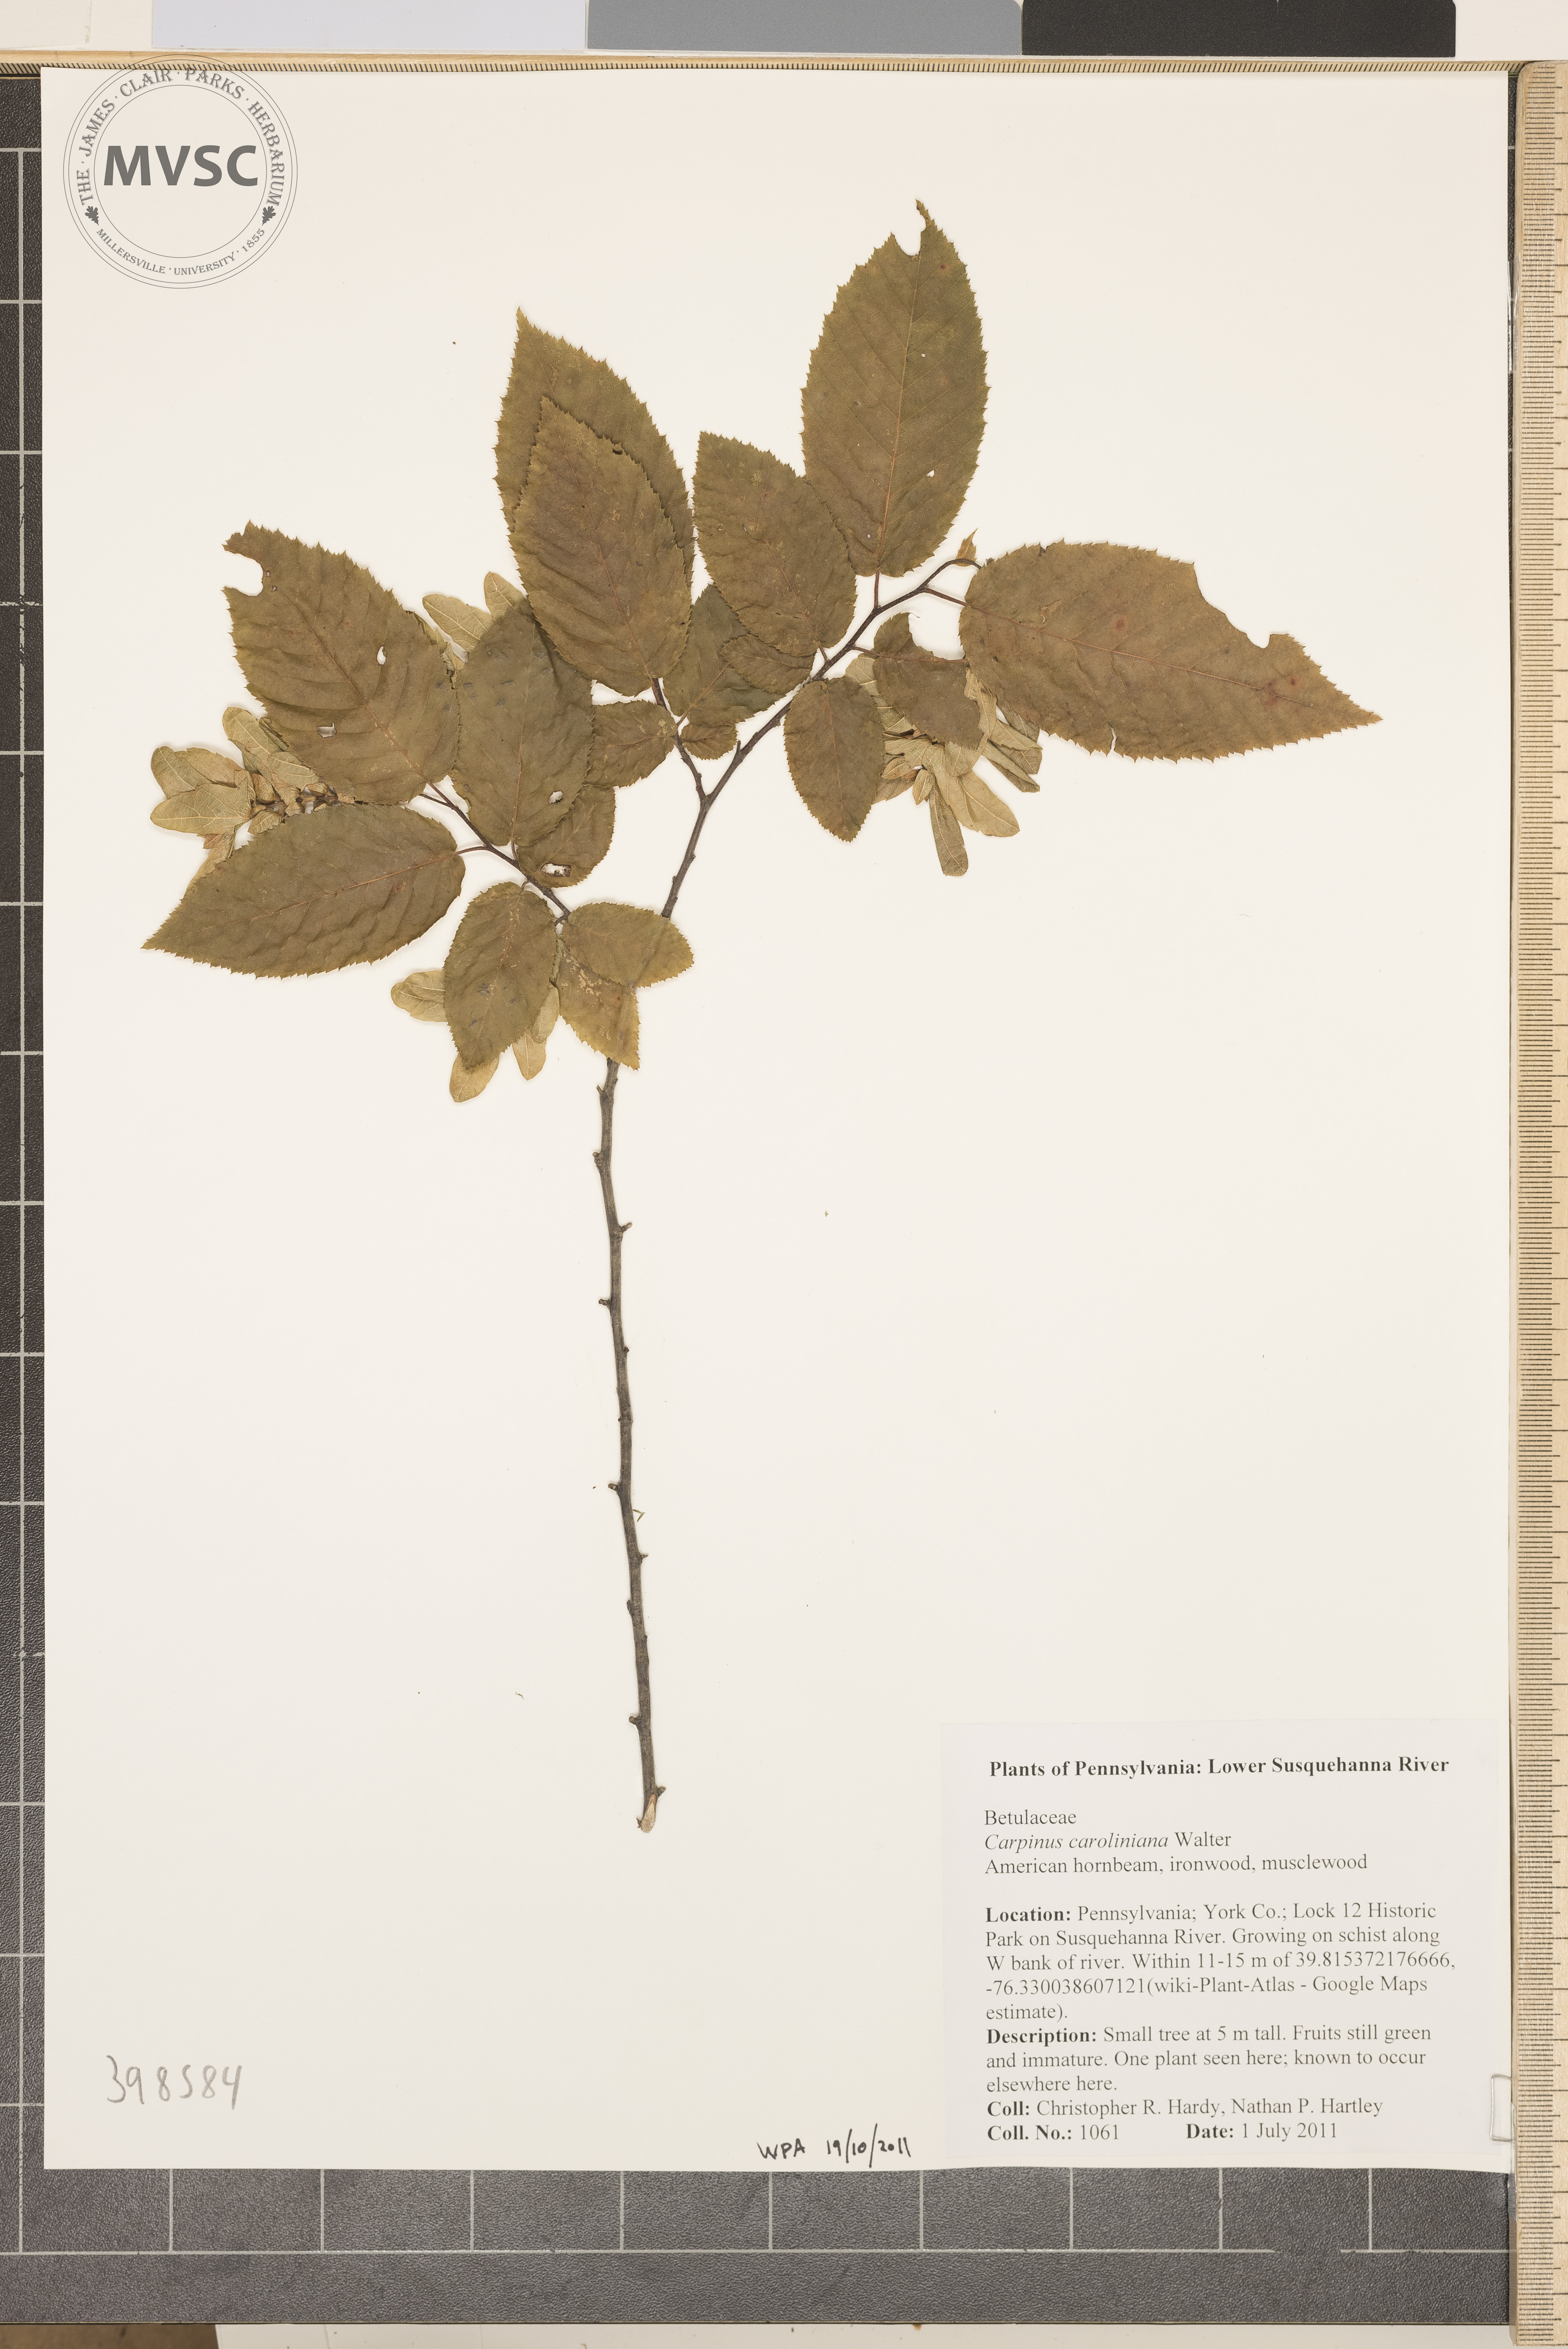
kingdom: Plantae
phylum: Tracheophyta
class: Magnoliopsida
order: Fagales
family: Betulaceae
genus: Carpinus
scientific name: Carpinus caroliniana
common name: Hornbeam
